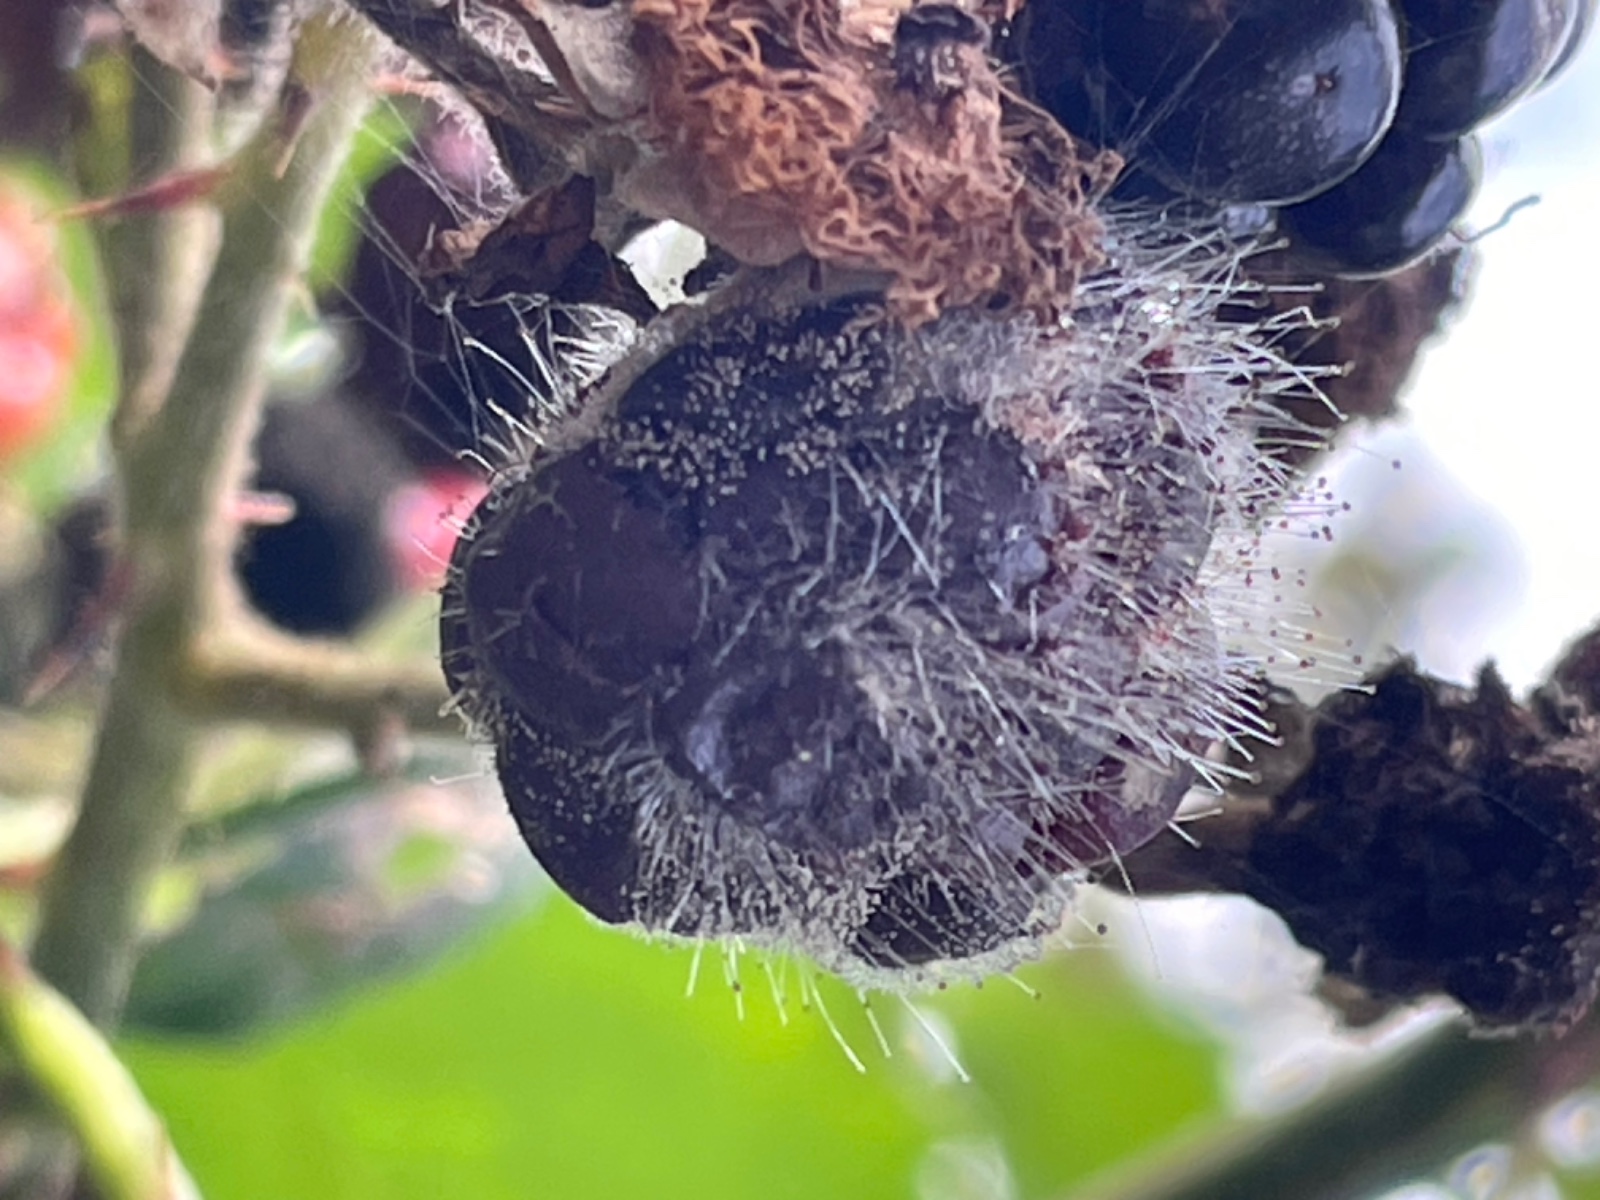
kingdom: Fungi
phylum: Mucoromycota
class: Mucoromycetes
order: Mucorales
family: Mucoraceae
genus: Mucor
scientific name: Mucor
